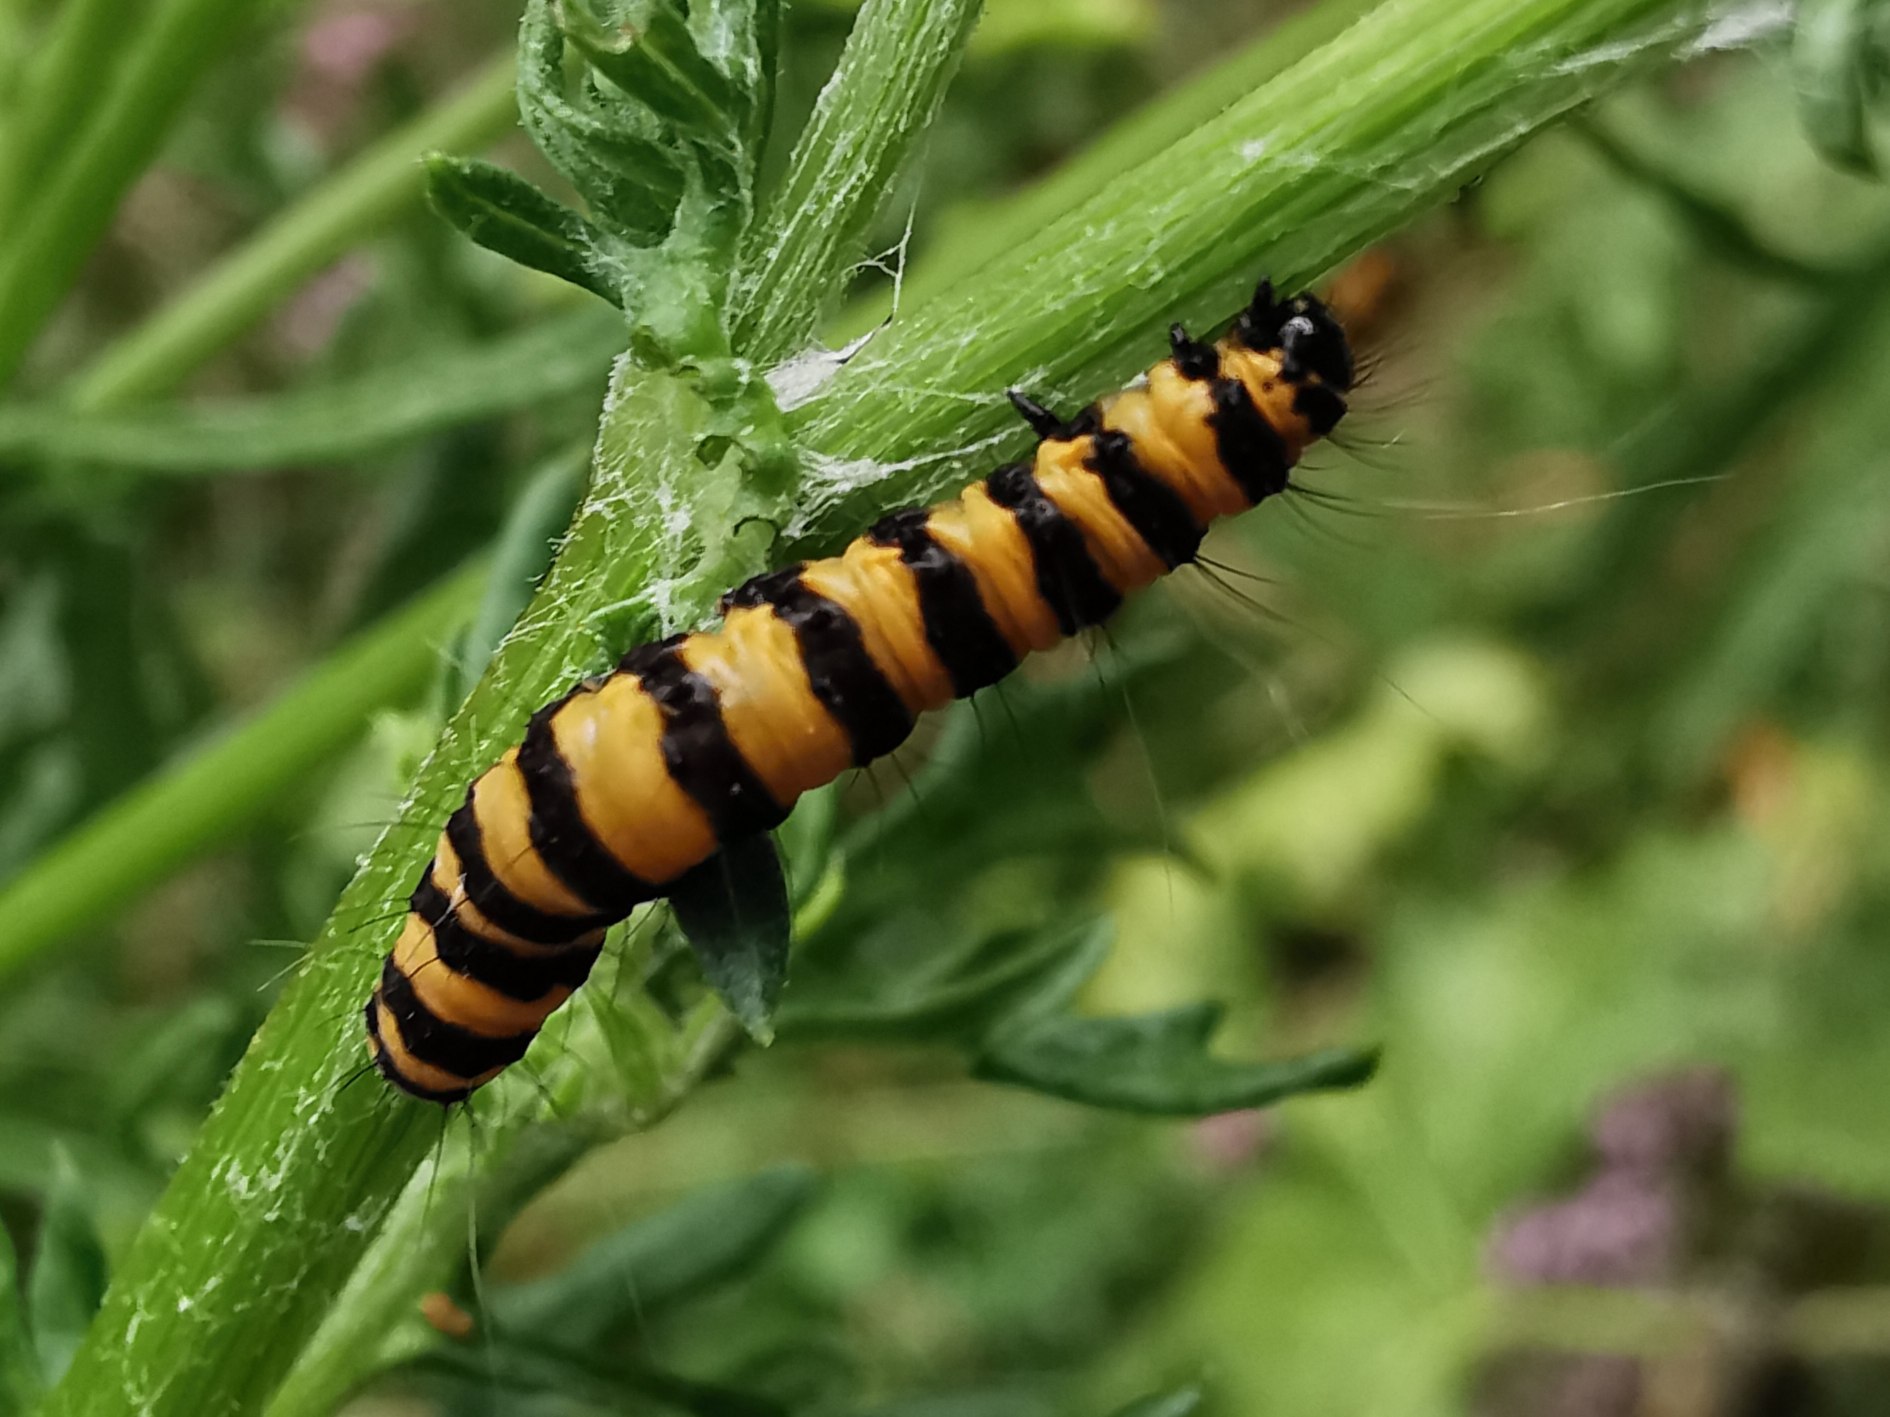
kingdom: Animalia
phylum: Arthropoda
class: Insecta
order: Lepidoptera
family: Erebidae
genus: Tyria
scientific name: Tyria jacobaeae
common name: Blodplet
